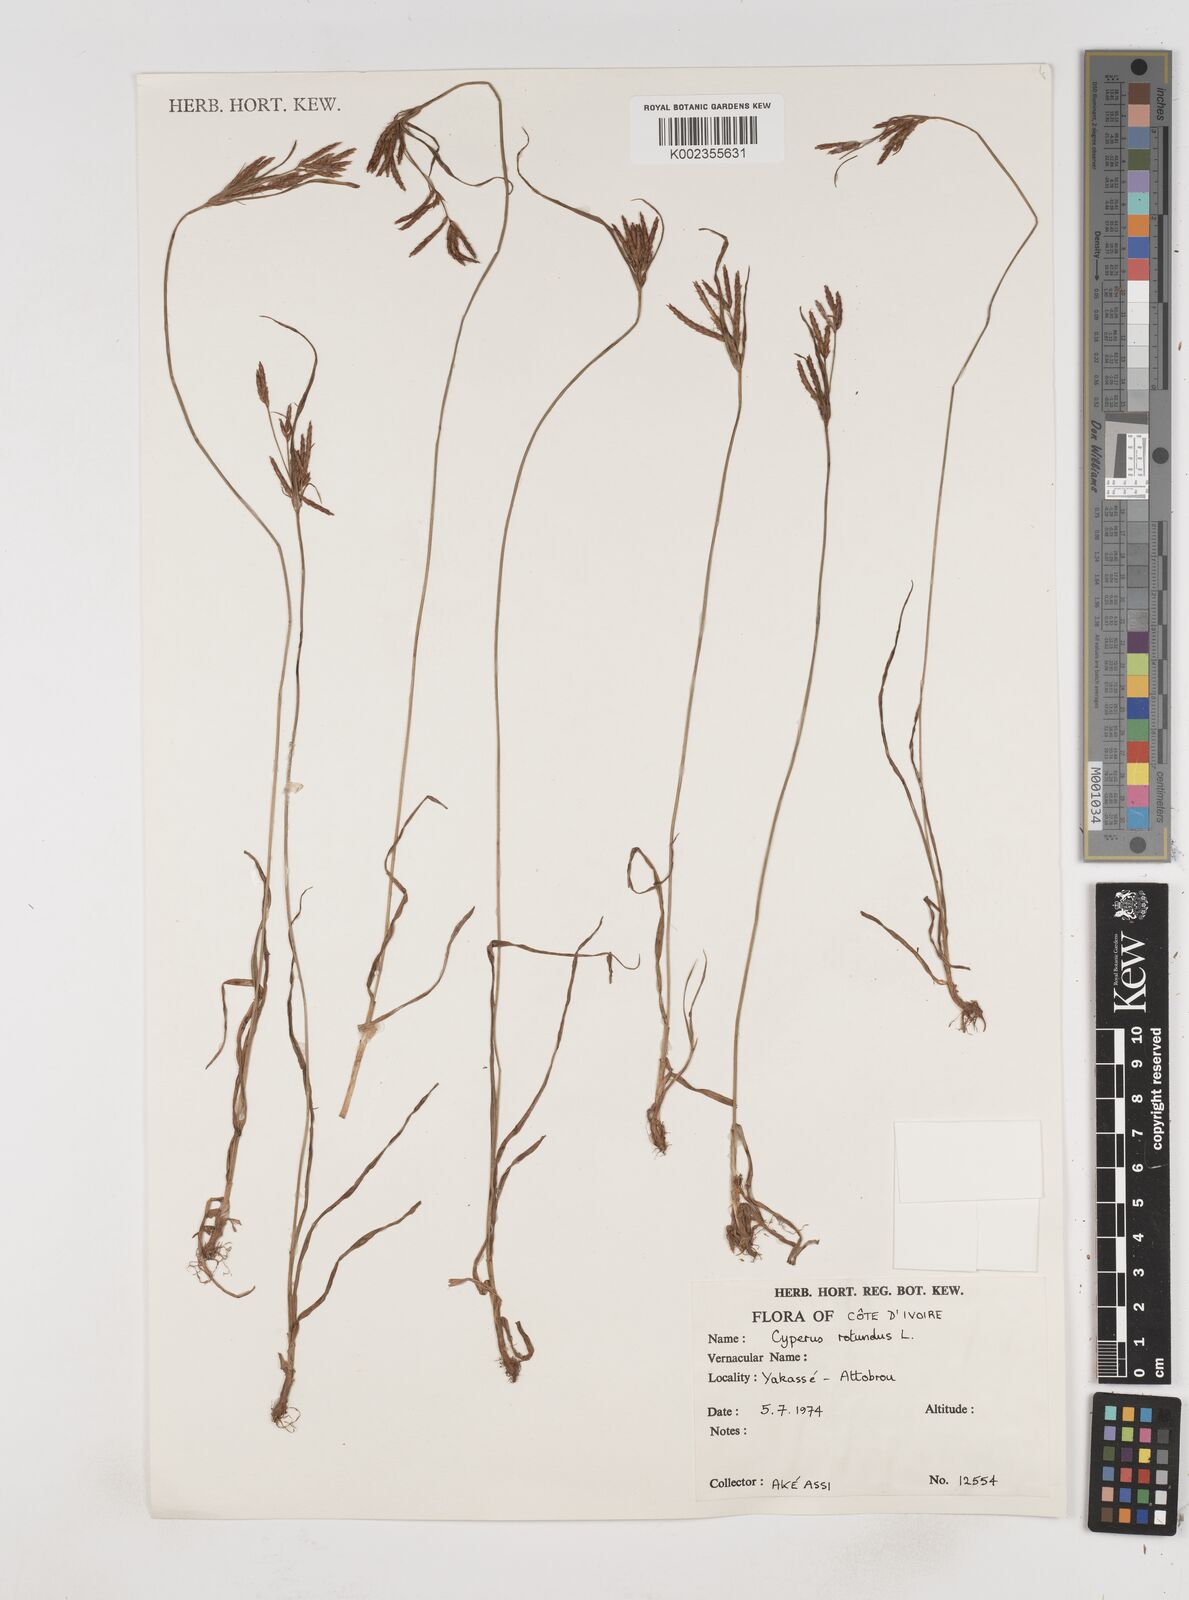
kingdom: Plantae
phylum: Tracheophyta
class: Liliopsida
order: Poales
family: Cyperaceae
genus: Cyperus
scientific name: Cyperus rotundus
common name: Nutgrass
